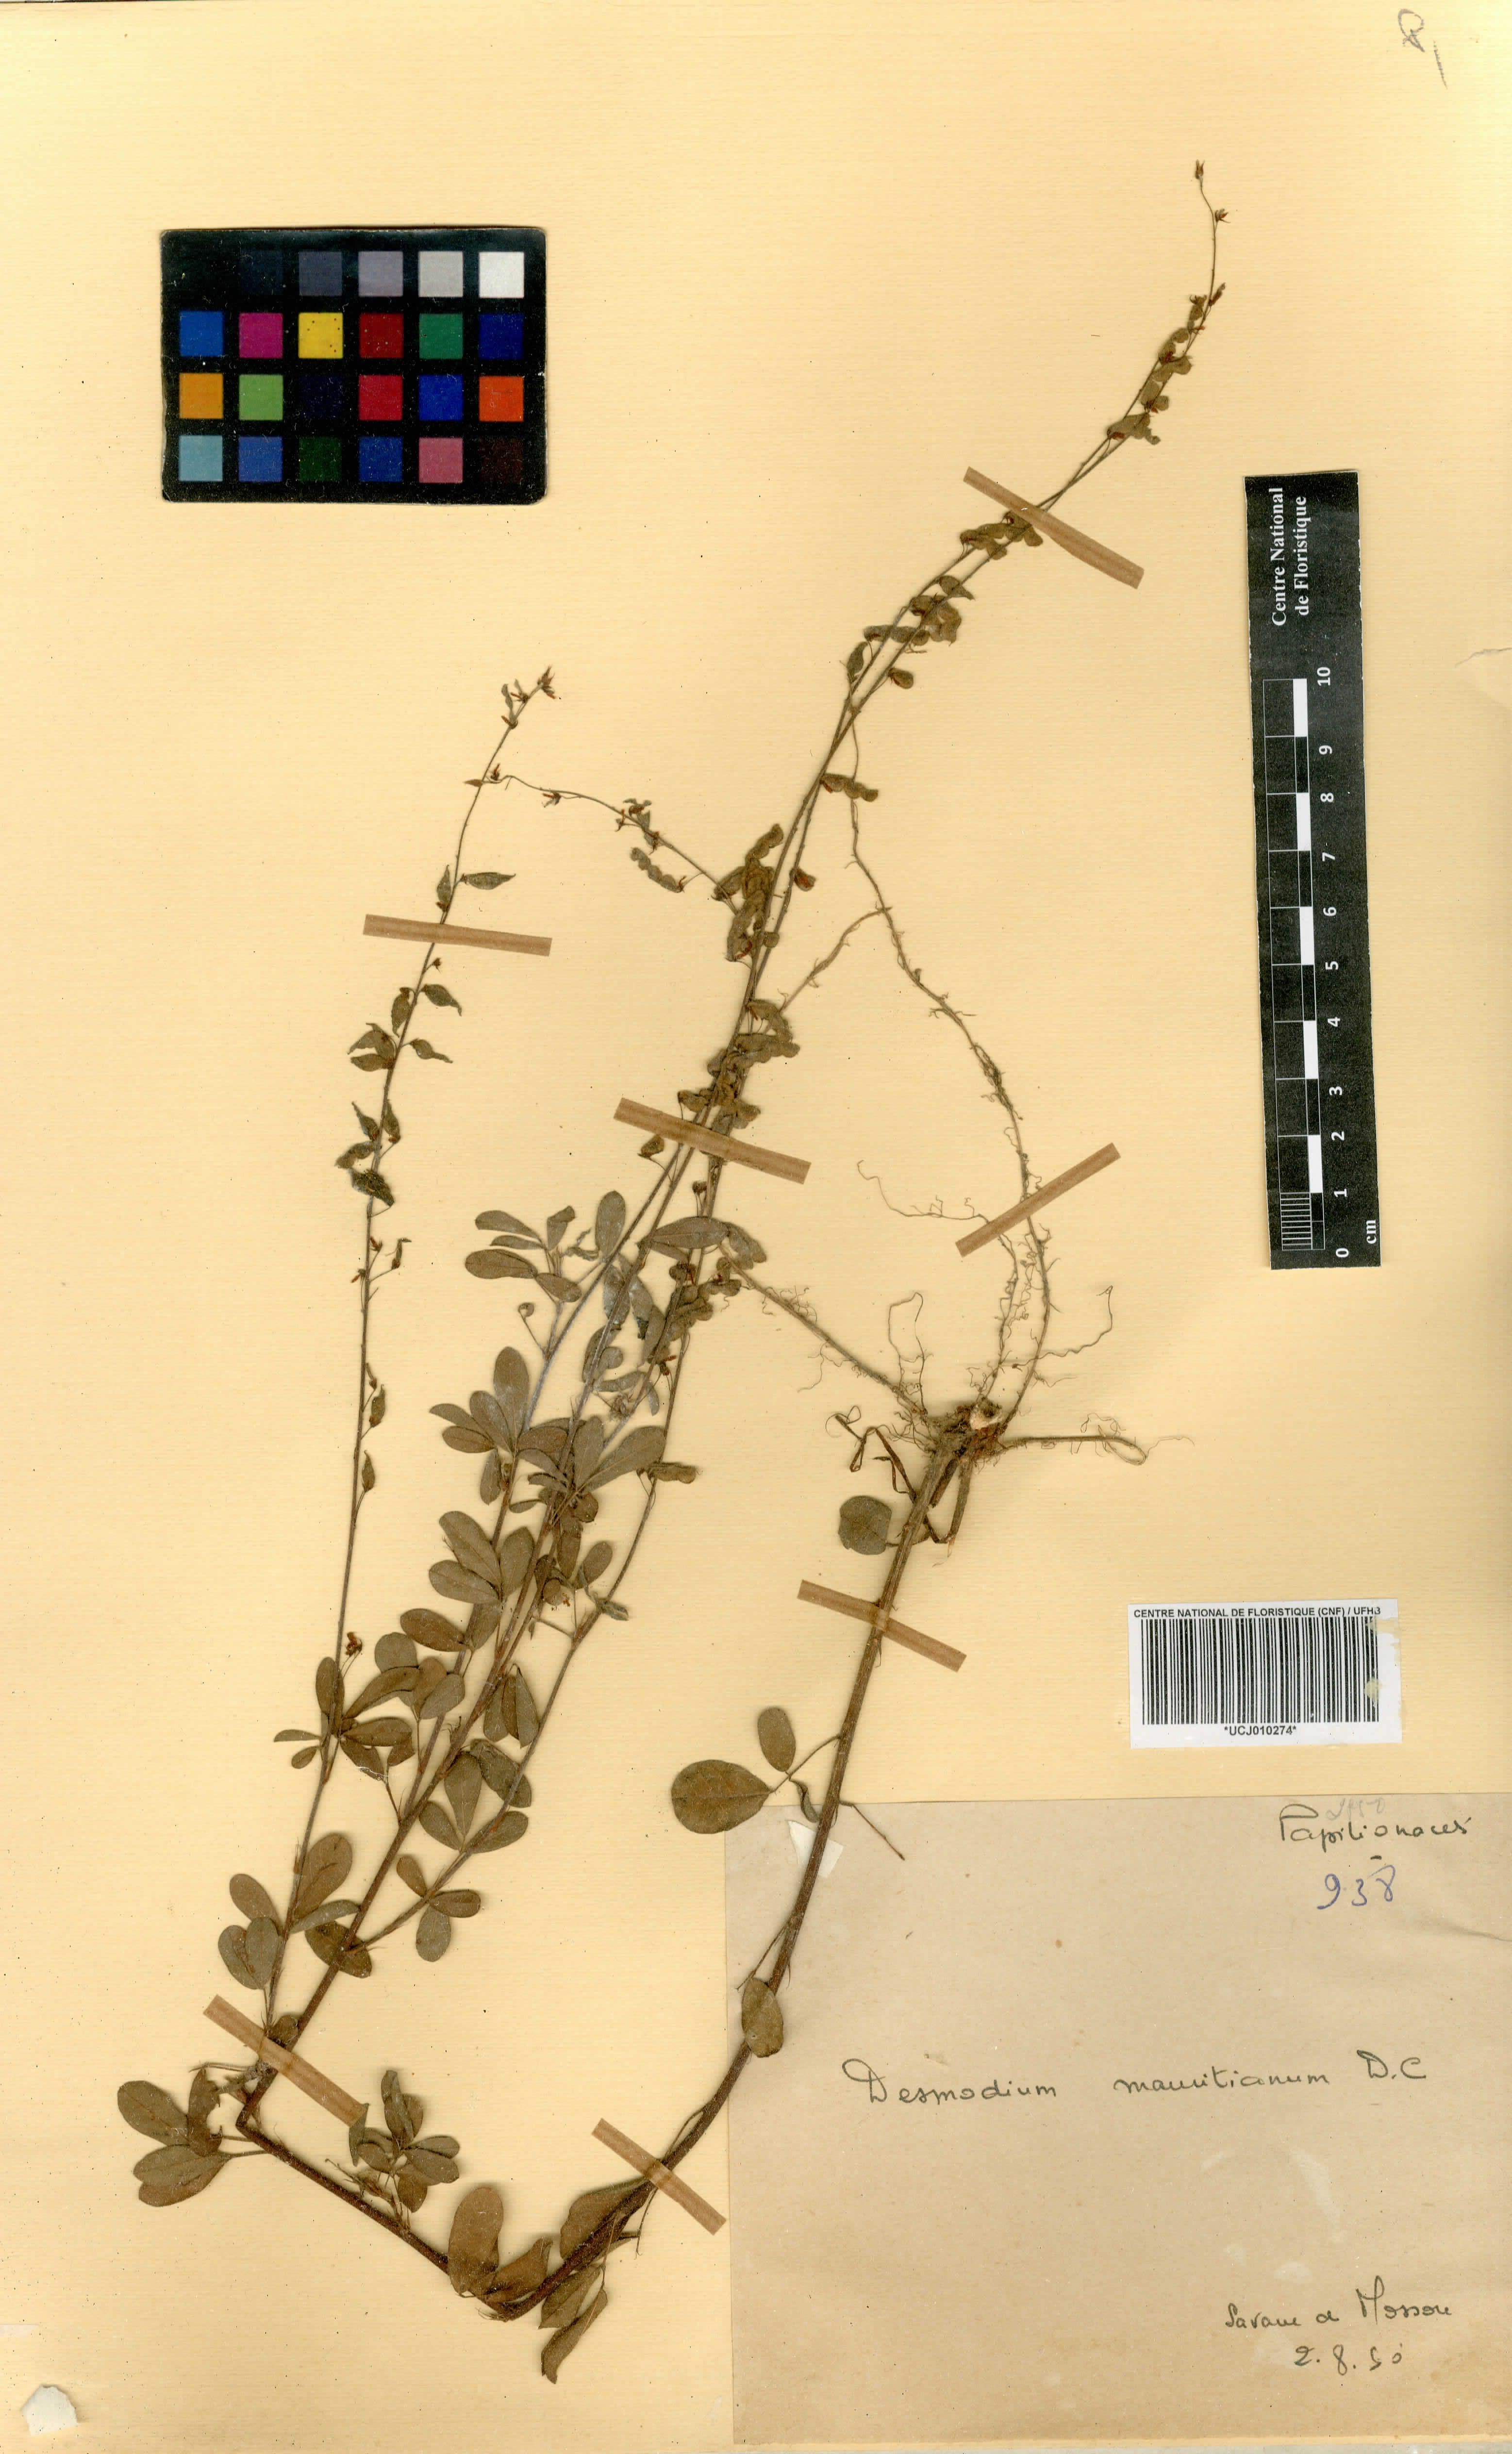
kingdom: Plantae
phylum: Tracheophyta
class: Magnoliopsida
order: Fabales
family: Fabaceae
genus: Desmodium
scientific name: Desmodium incanum
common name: Tickclover
